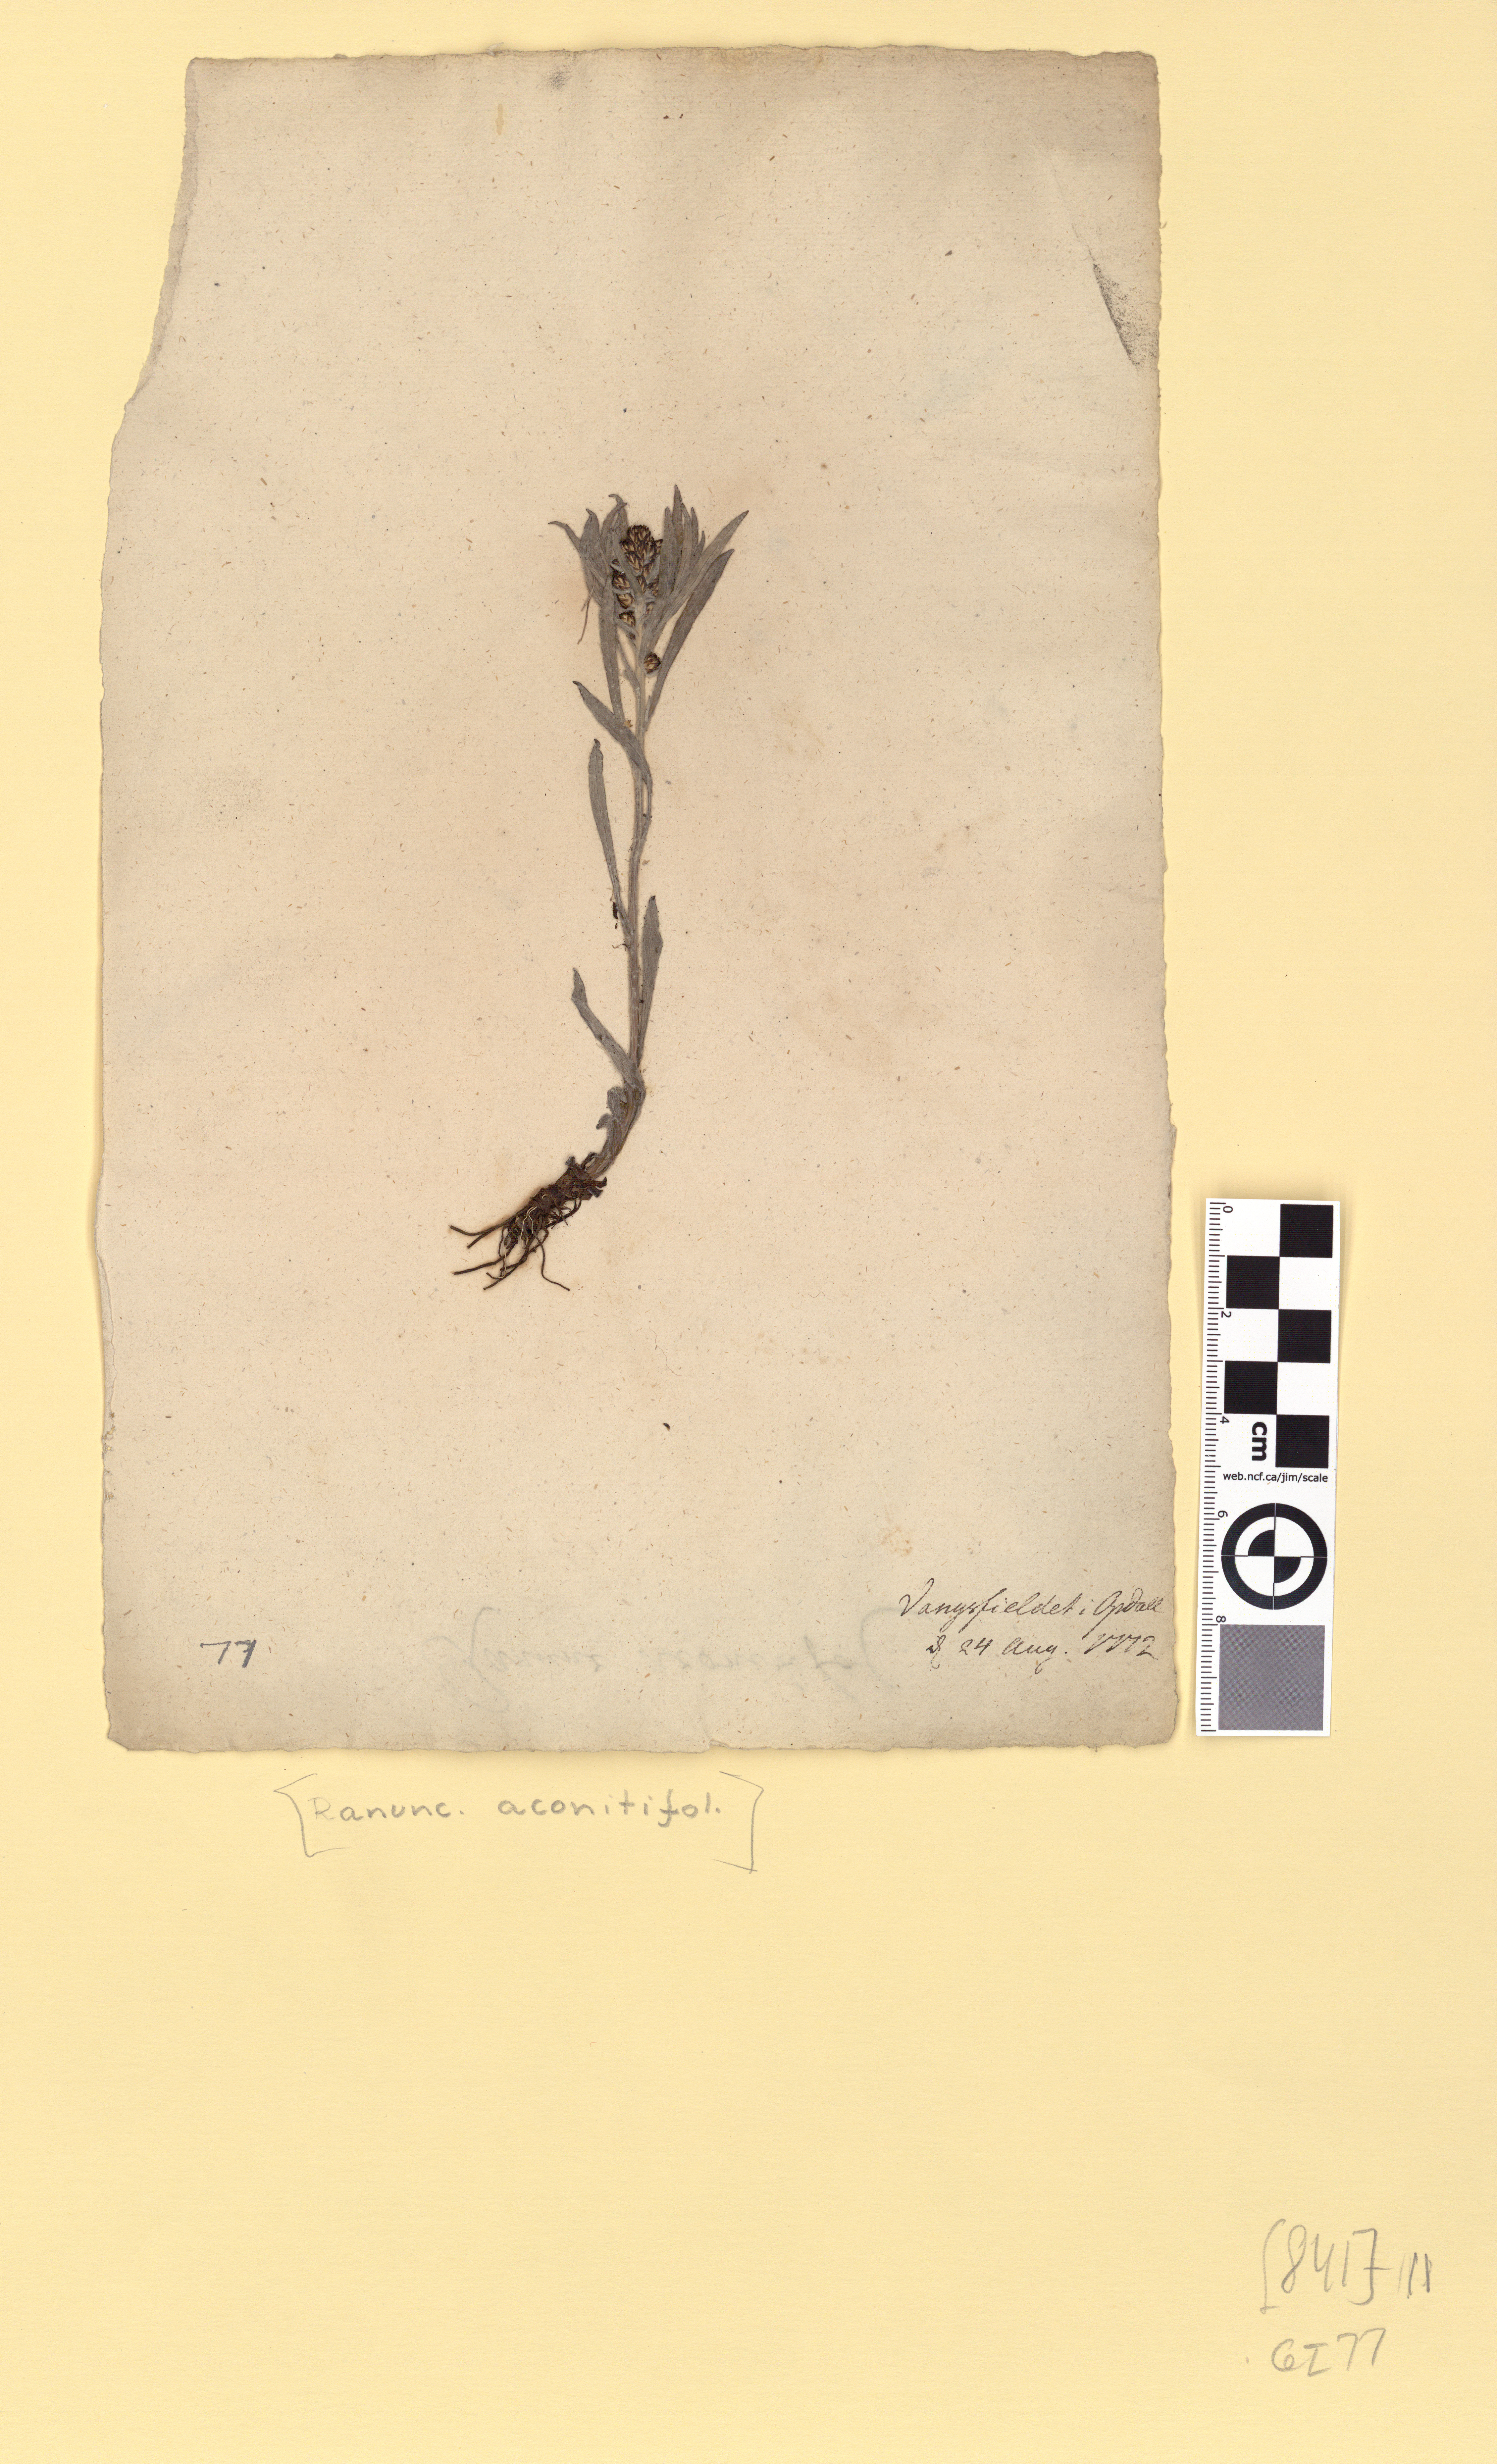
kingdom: Plantae
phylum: Tracheophyta
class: Magnoliopsida
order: Asterales
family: Asteraceae
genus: Omalotheca
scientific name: Omalotheca norvegica
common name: Norwegian arctic-cudweed
